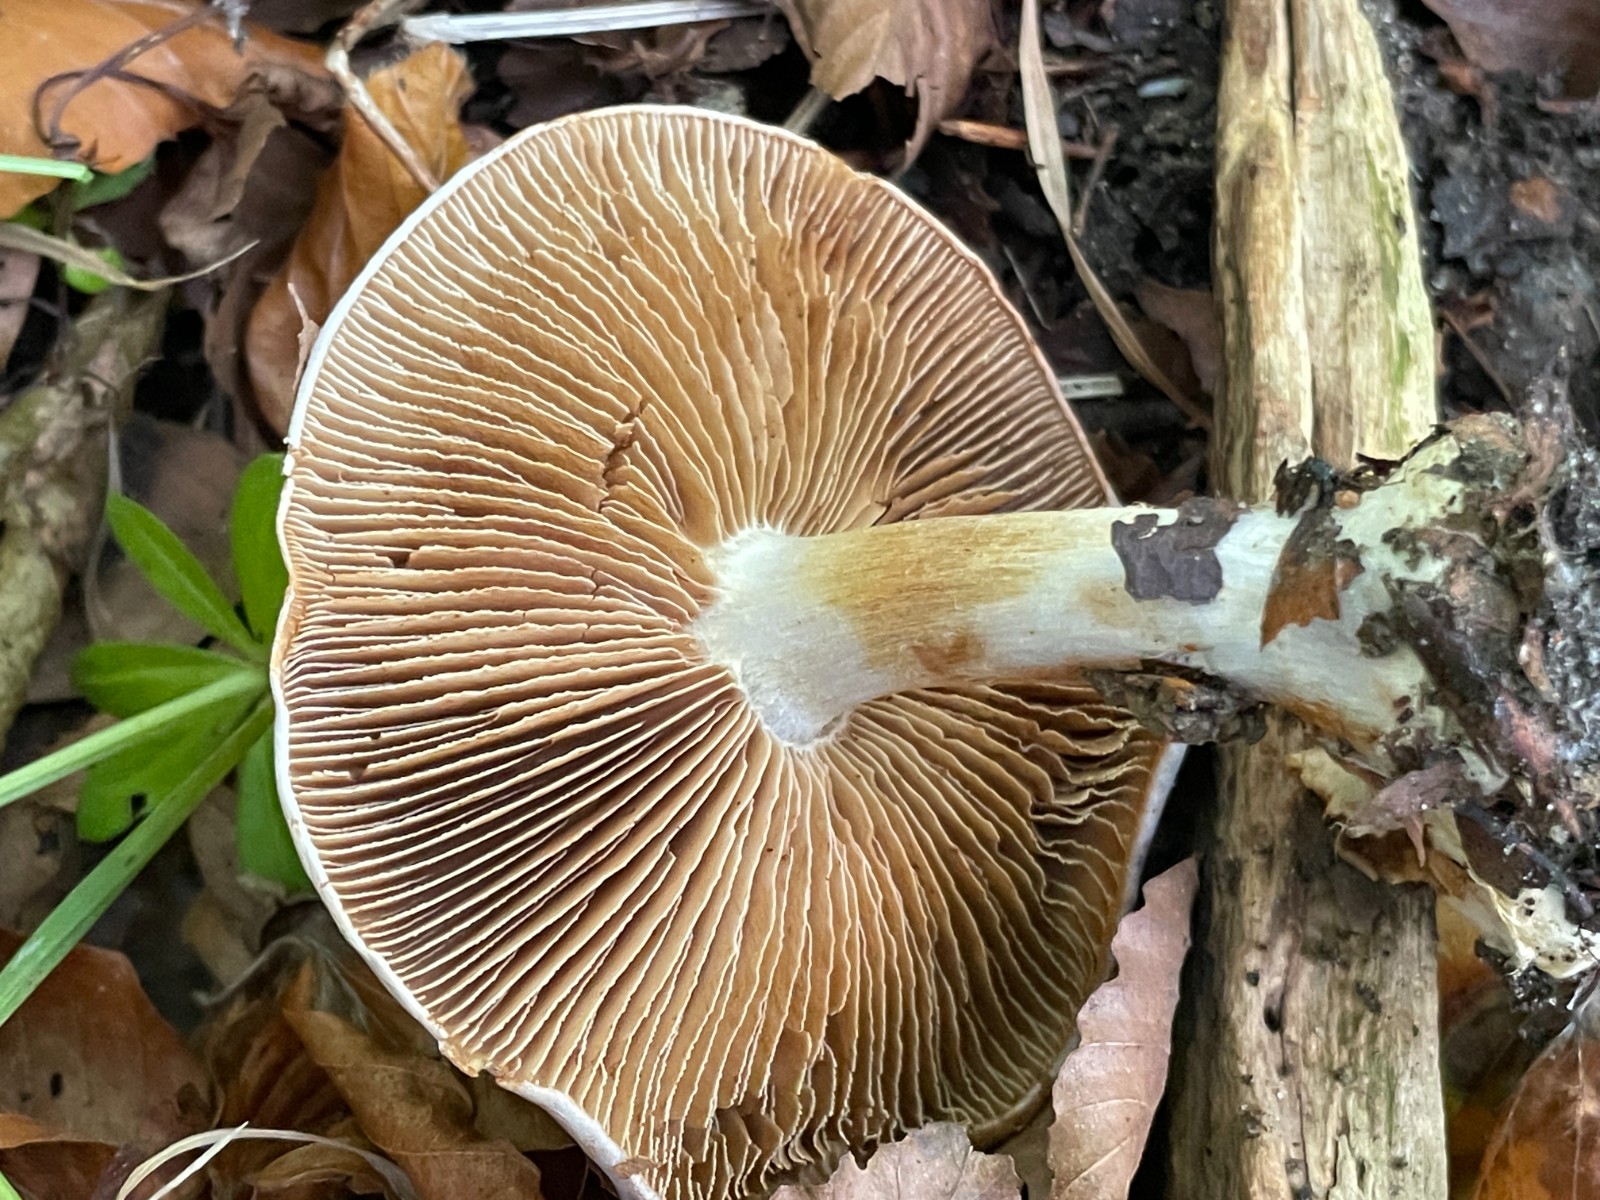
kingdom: Fungi
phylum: Basidiomycota
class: Agaricomycetes
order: Agaricales
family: Cortinariaceae
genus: Cortinarius
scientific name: Cortinarius caerulescens
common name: blåkødet slørhat
